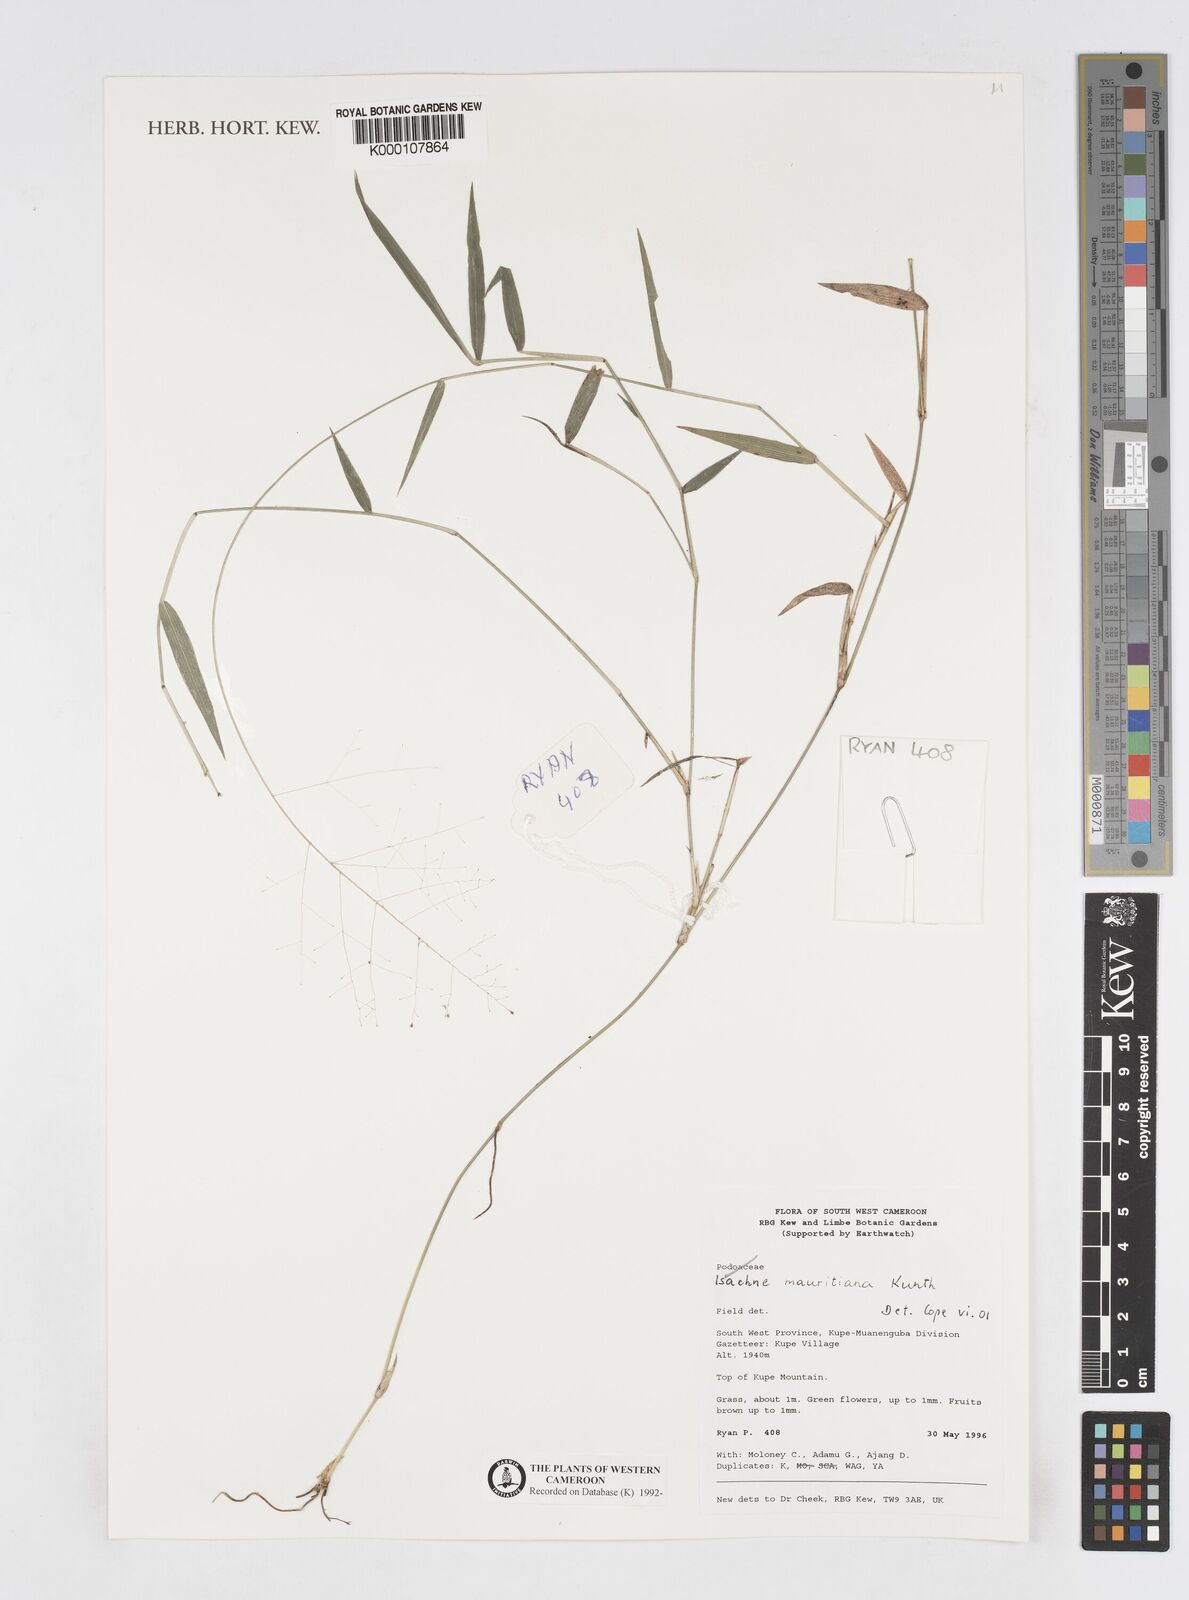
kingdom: Plantae
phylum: Tracheophyta
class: Liliopsida
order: Poales
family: Poaceae
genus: Isachne
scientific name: Isachne mauritiana
